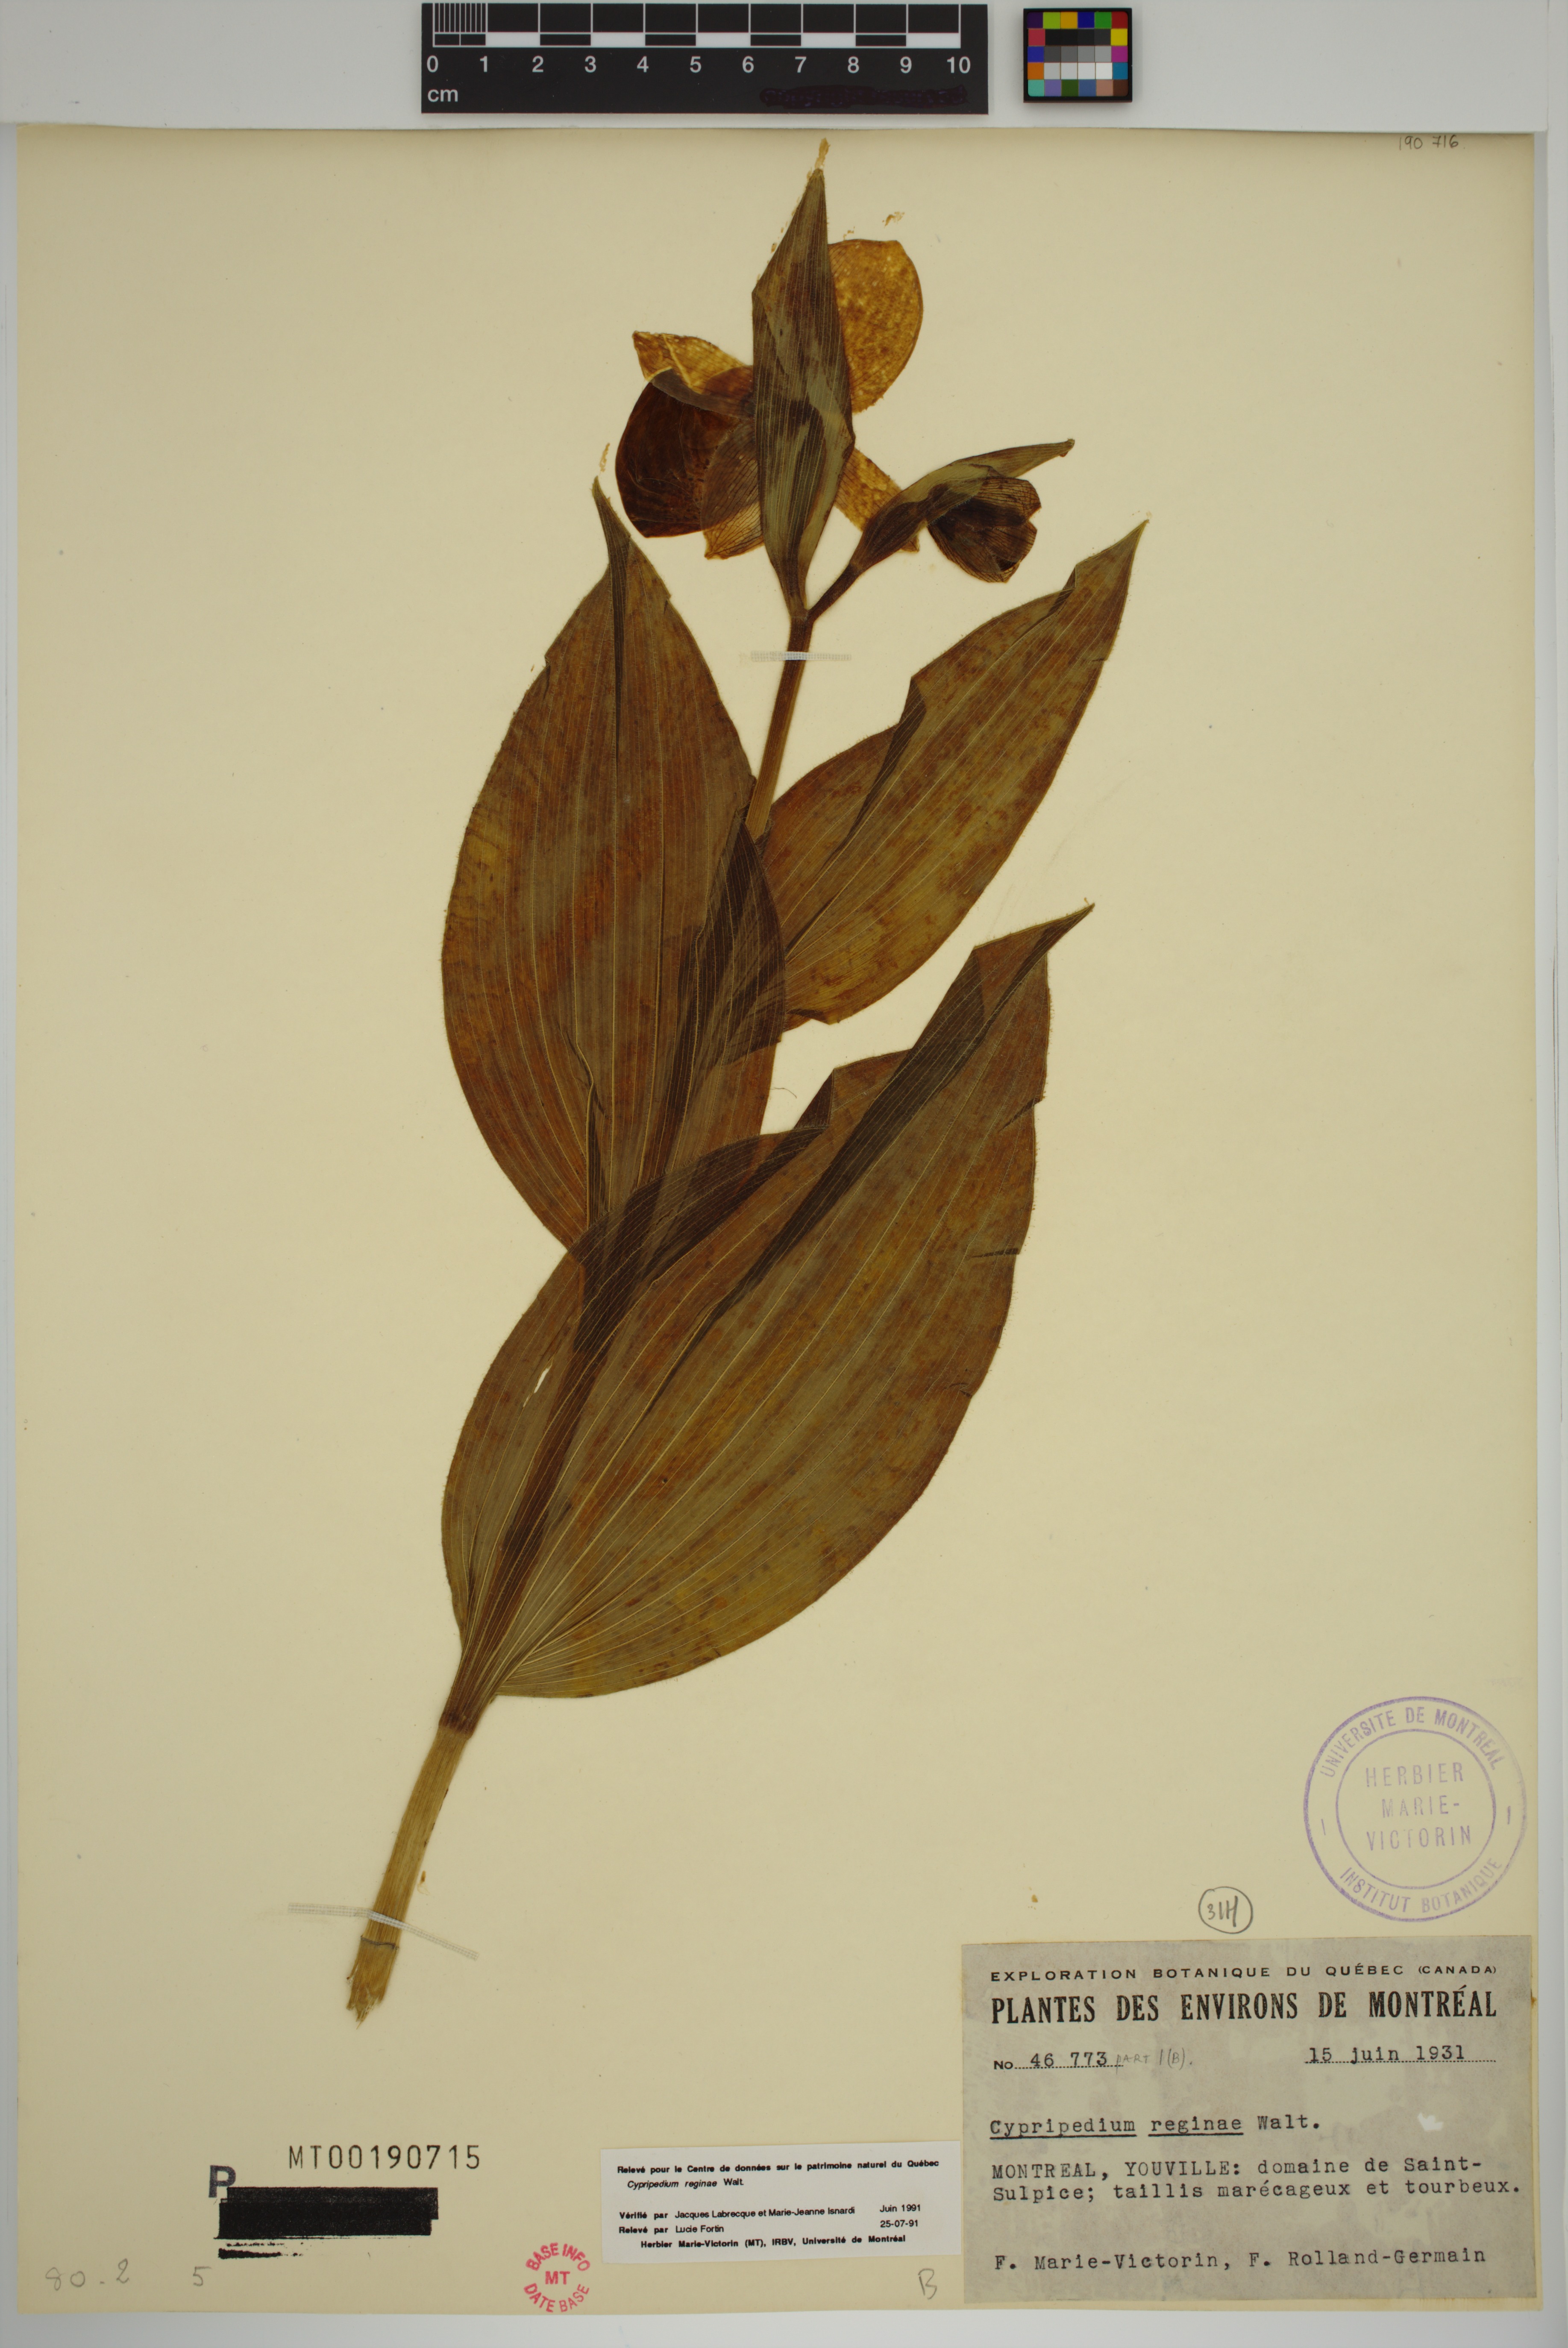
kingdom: Plantae
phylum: Tracheophyta
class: Liliopsida
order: Asparagales
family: Orchidaceae
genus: Cypripedium
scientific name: Cypripedium reginae
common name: Queen lady's-slipper
